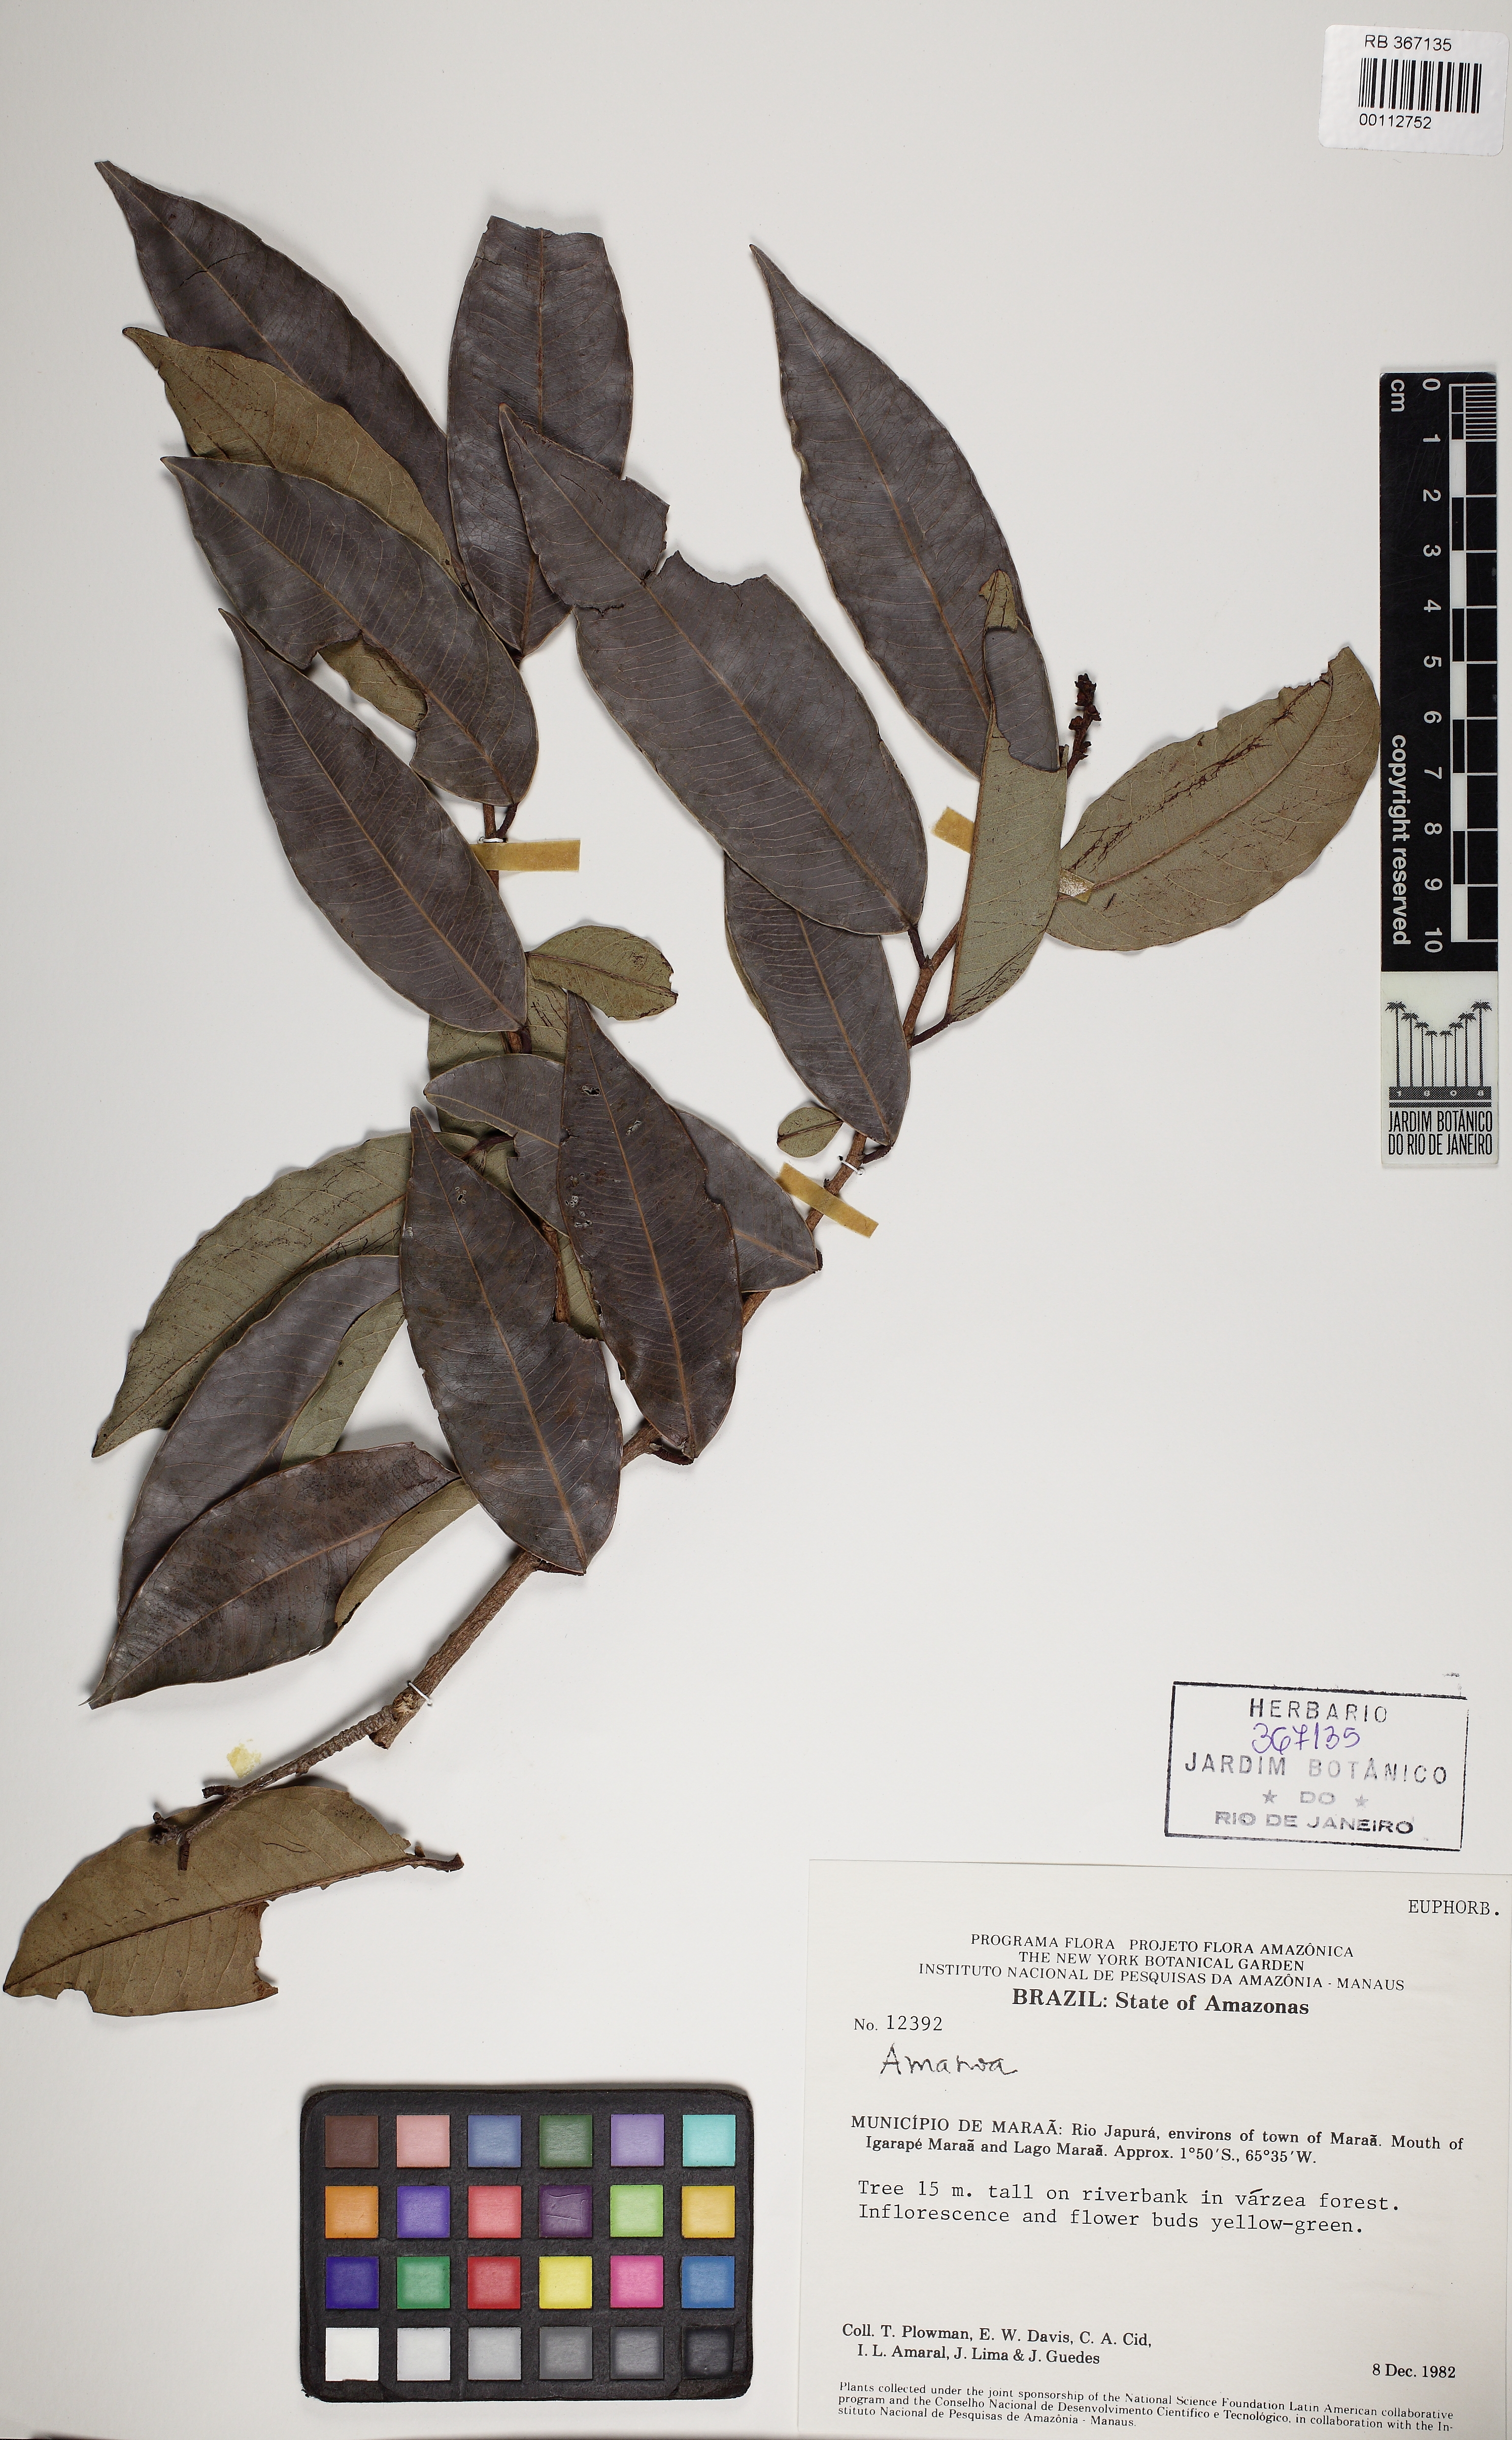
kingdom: Plantae
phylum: Tracheophyta
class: Magnoliopsida
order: Malpighiales
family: Phyllanthaceae
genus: Amanoa
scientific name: Amanoa
